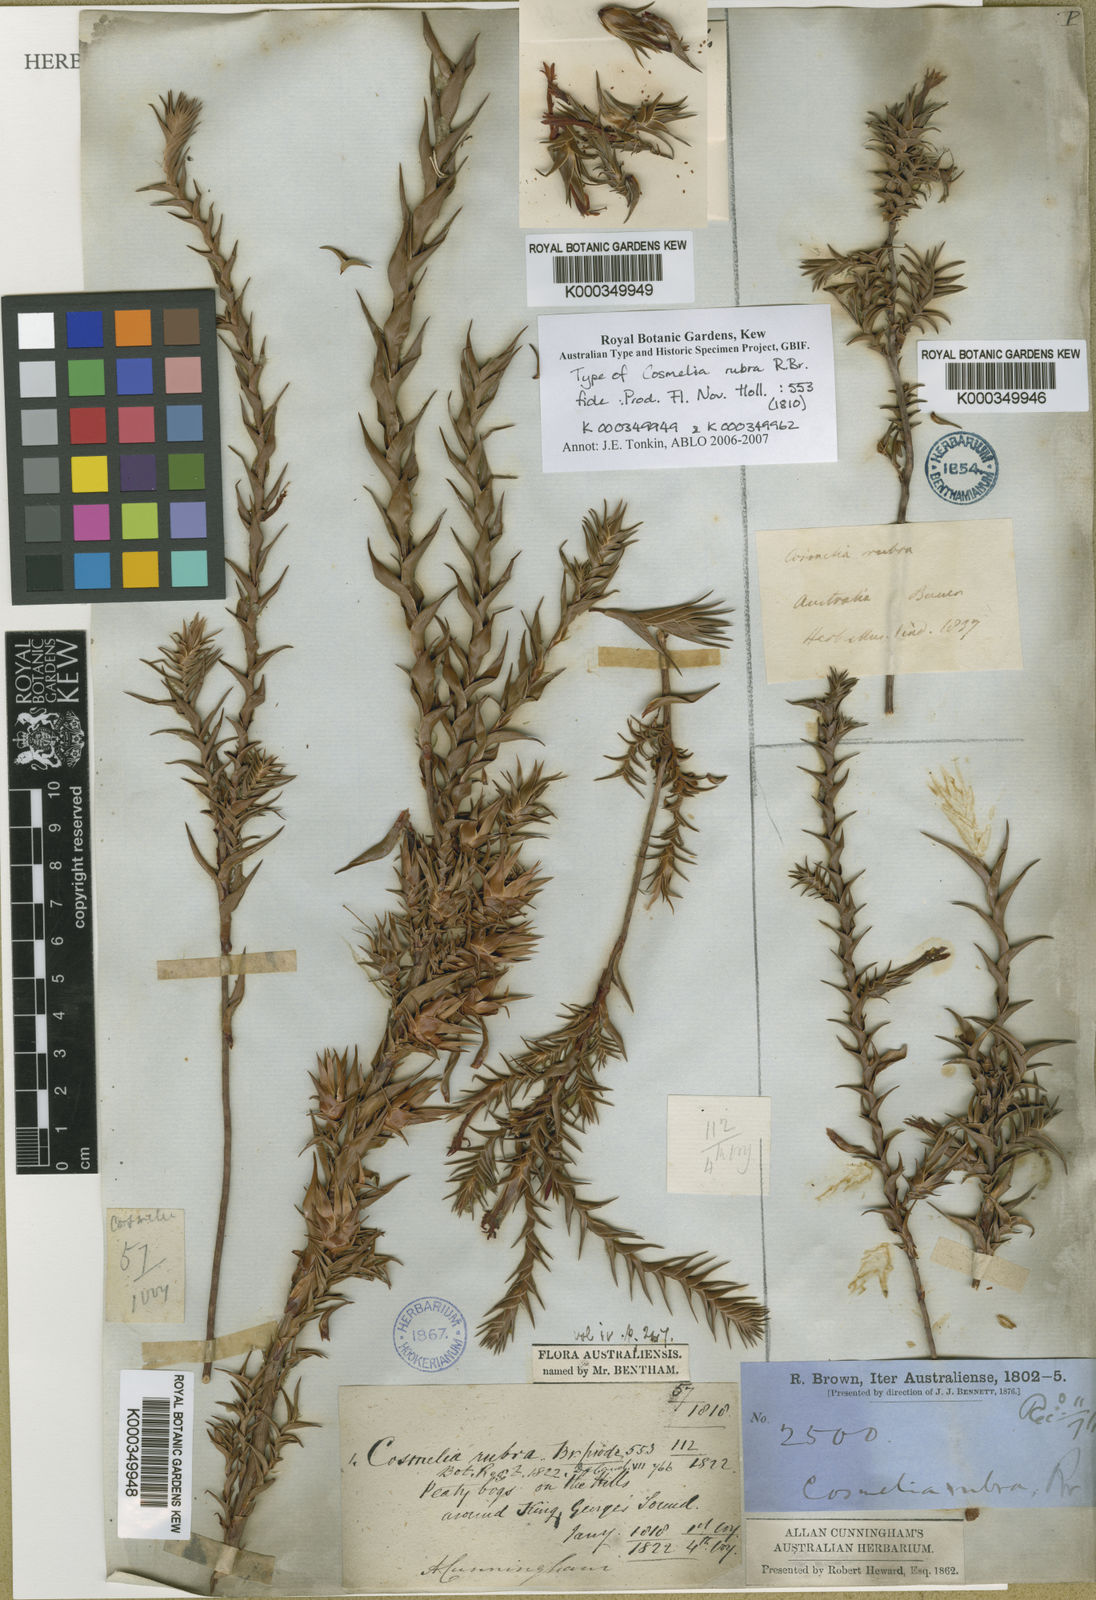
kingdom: Plantae
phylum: Tracheophyta
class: Magnoliopsida
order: Ericales
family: Ericaceae
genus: Cosmelia
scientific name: Cosmelia rubra
